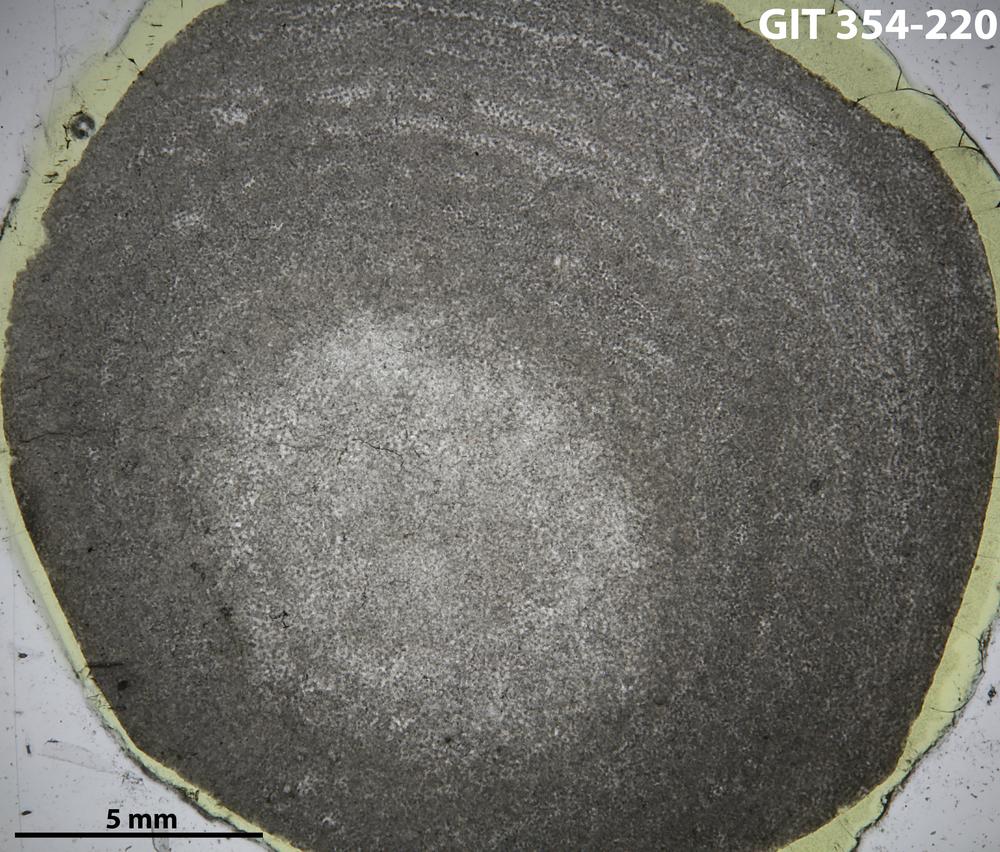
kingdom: Animalia
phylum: Porifera
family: Ecclimadictyidae
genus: Ecclimadictyon
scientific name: Ecclimadictyon Clathrodictyon microvesiculosum
